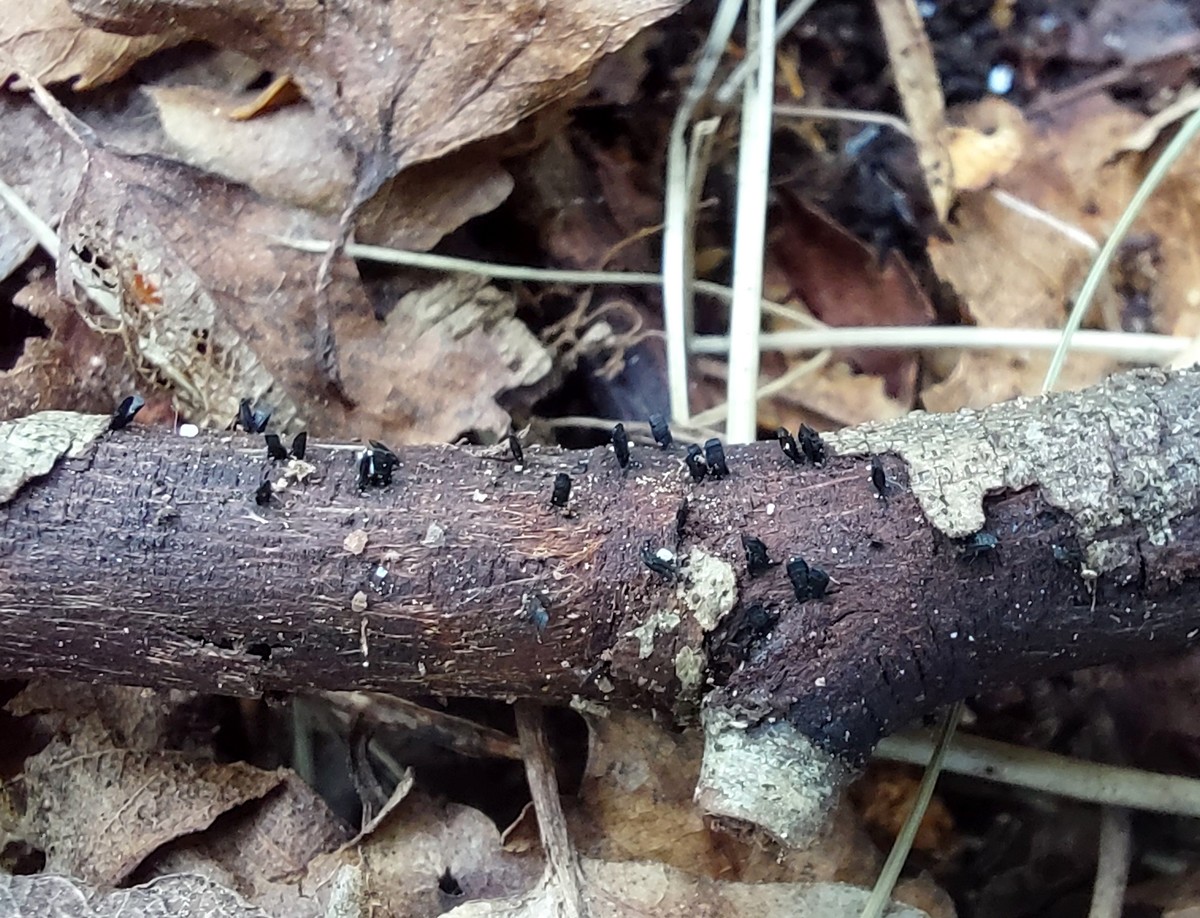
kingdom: Fungi
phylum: Ascomycota
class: Eurotiomycetes
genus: Glyphium
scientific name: Glyphium elatum
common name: kuløkse
